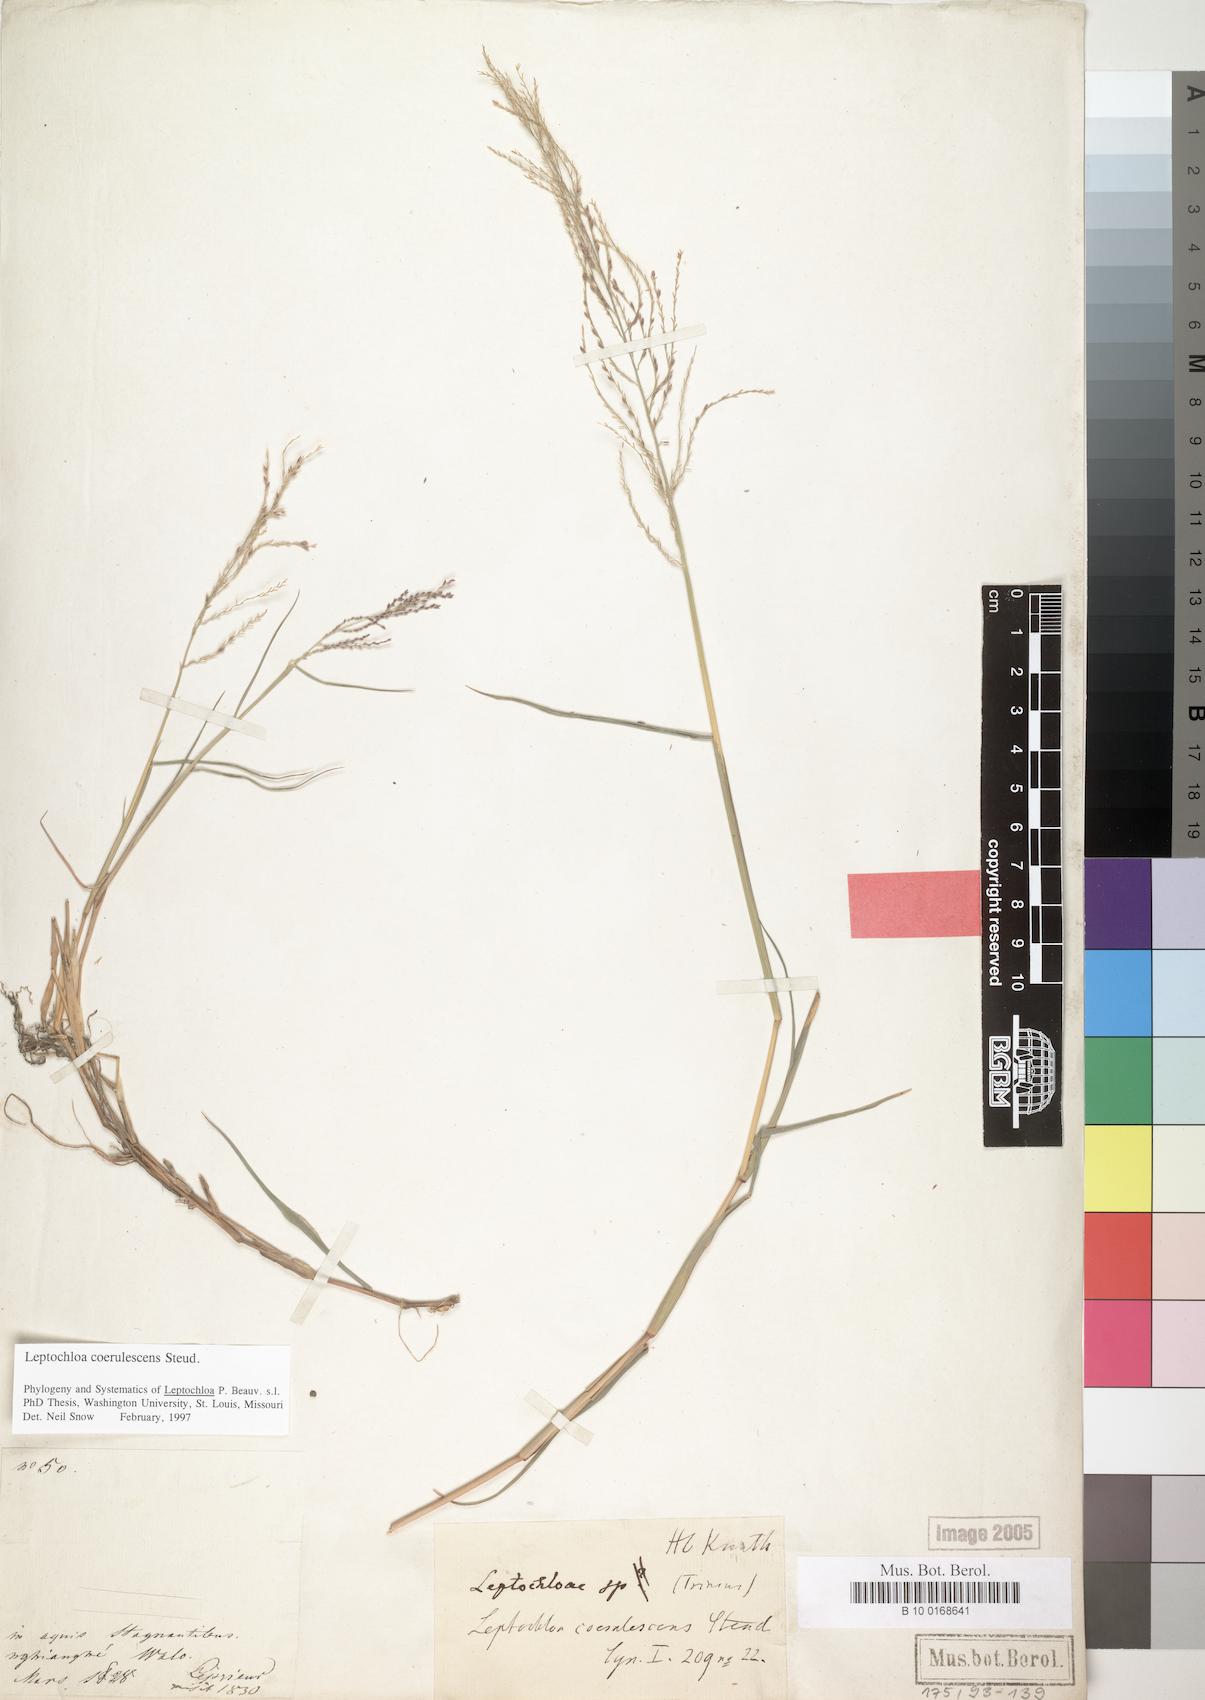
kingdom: Plantae
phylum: Tracheophyta
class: Liliopsida
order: Poales
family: Poaceae
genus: Leptochloa
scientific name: Leptochloa coerulescens
